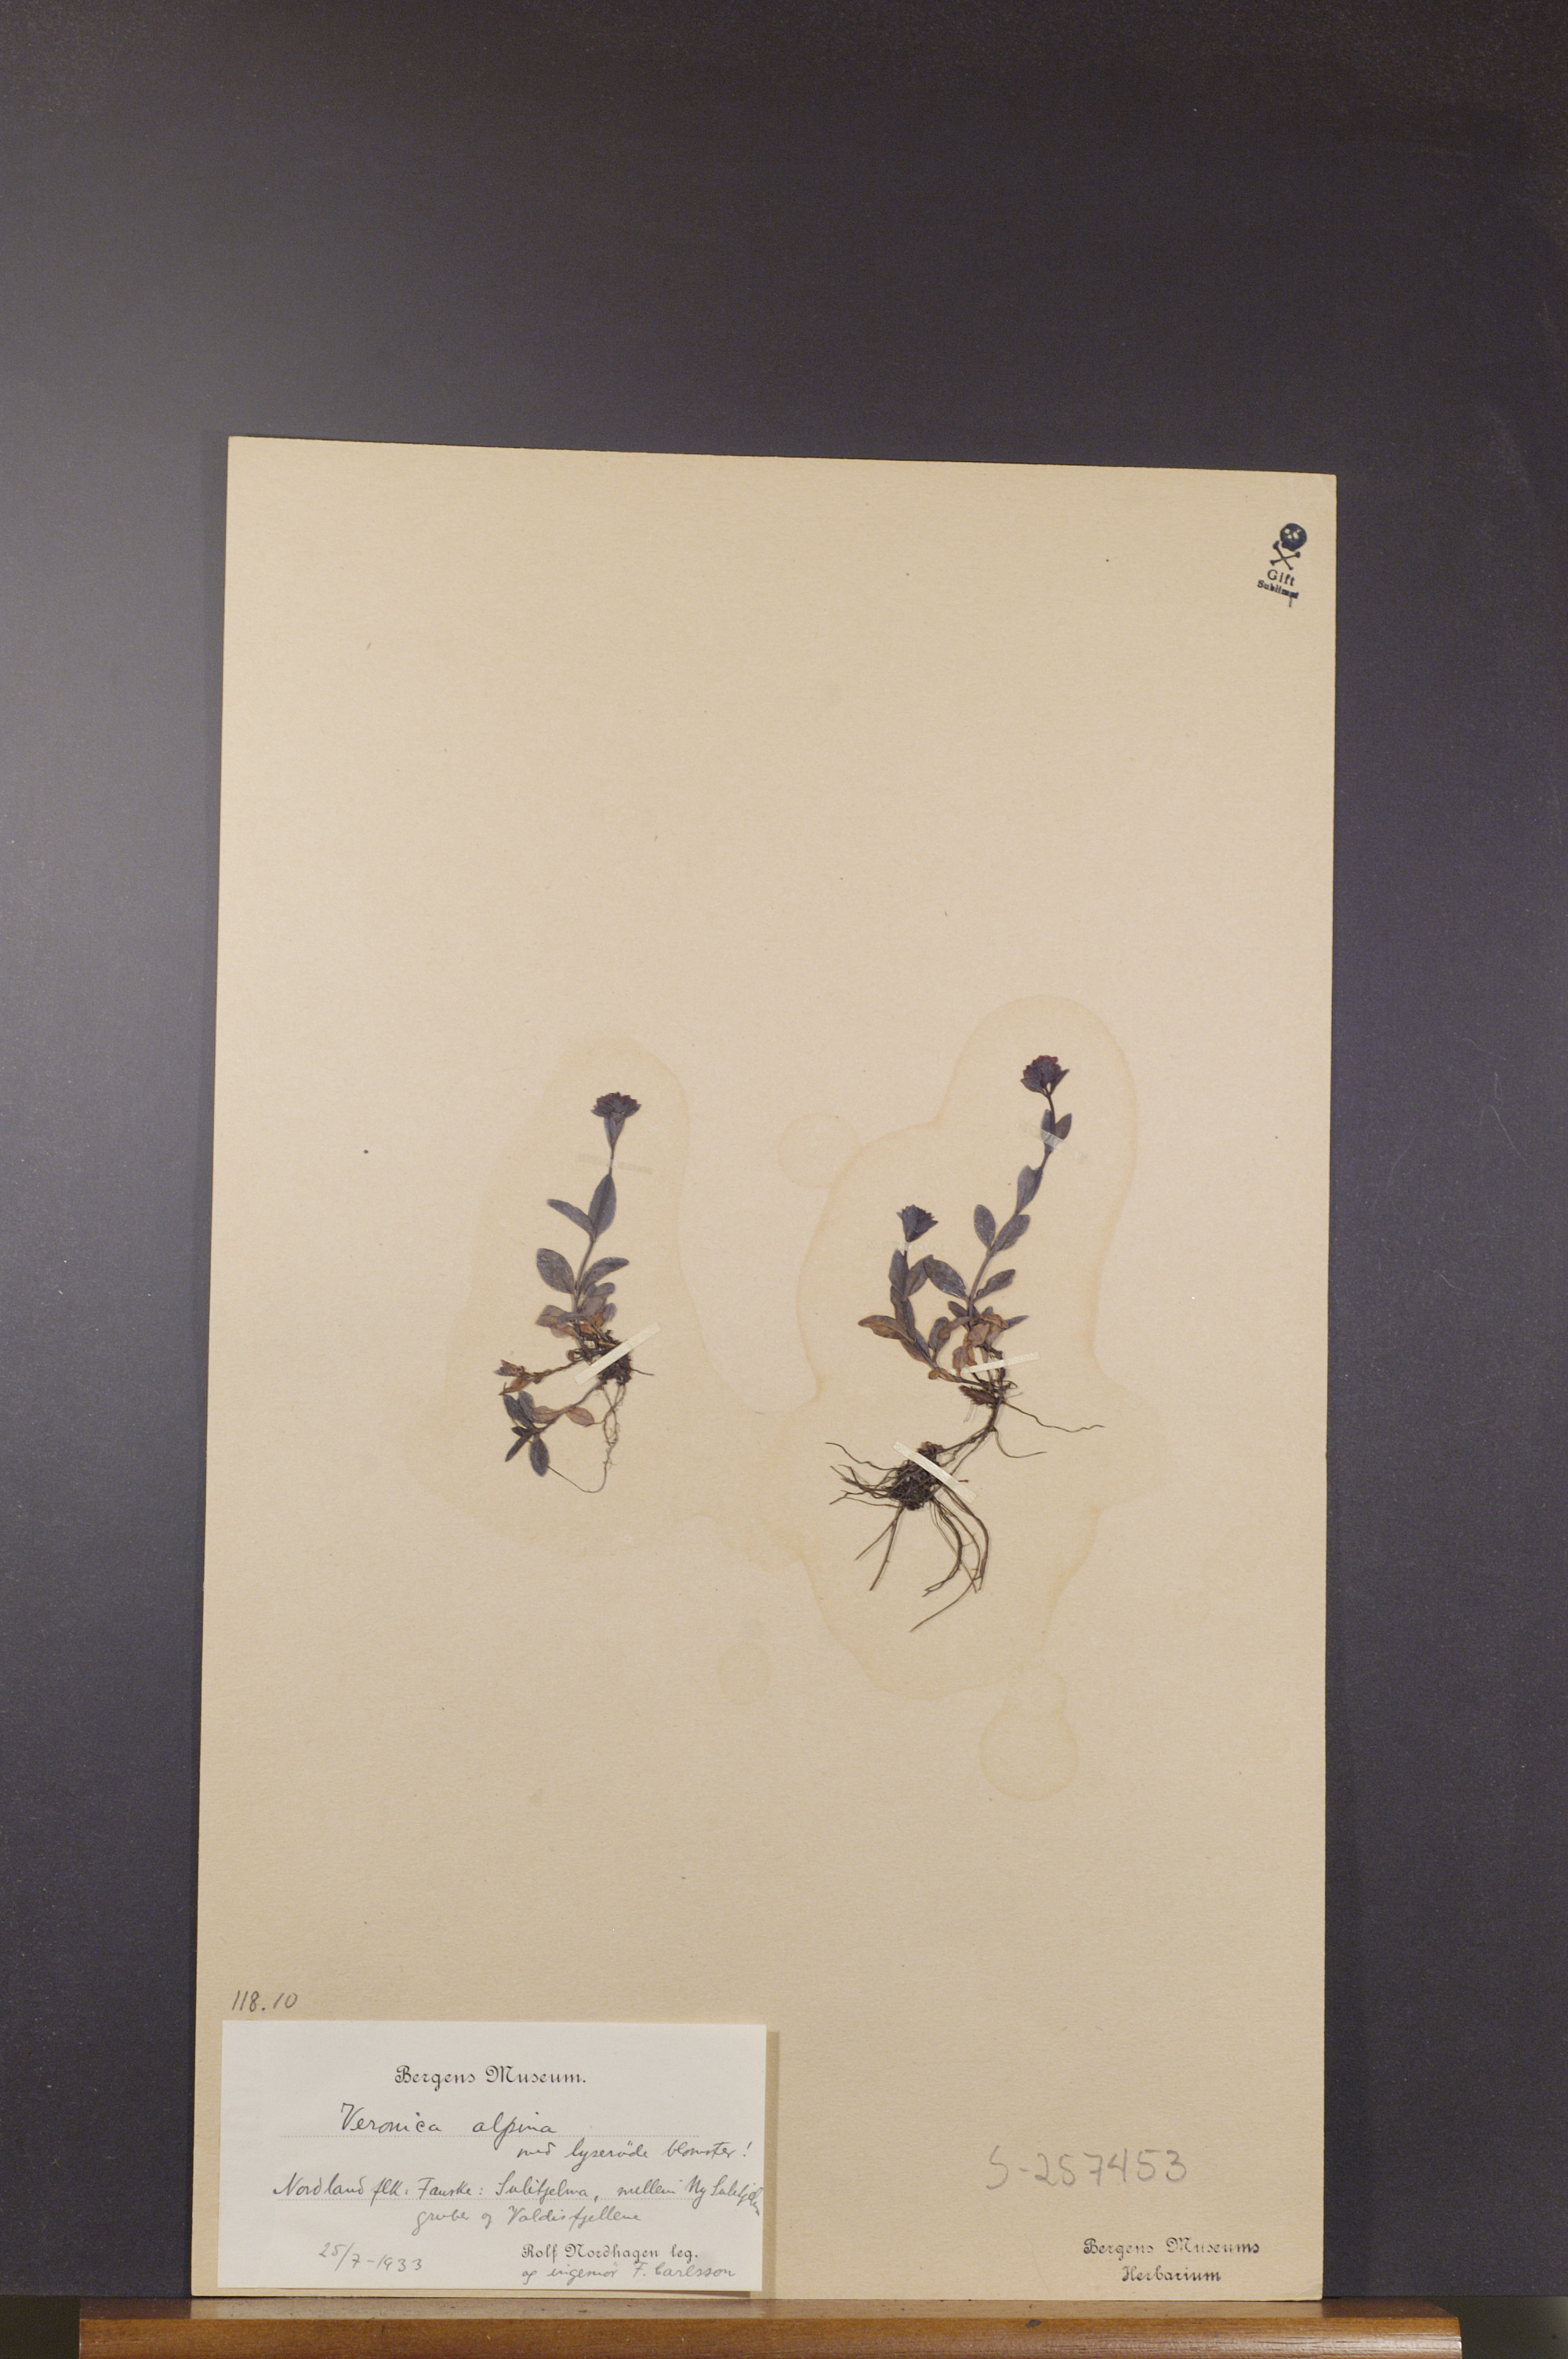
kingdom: Plantae
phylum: Tracheophyta
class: Magnoliopsida
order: Lamiales
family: Plantaginaceae
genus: Veronica
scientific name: Veronica alpina
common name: Alpine speedwell
